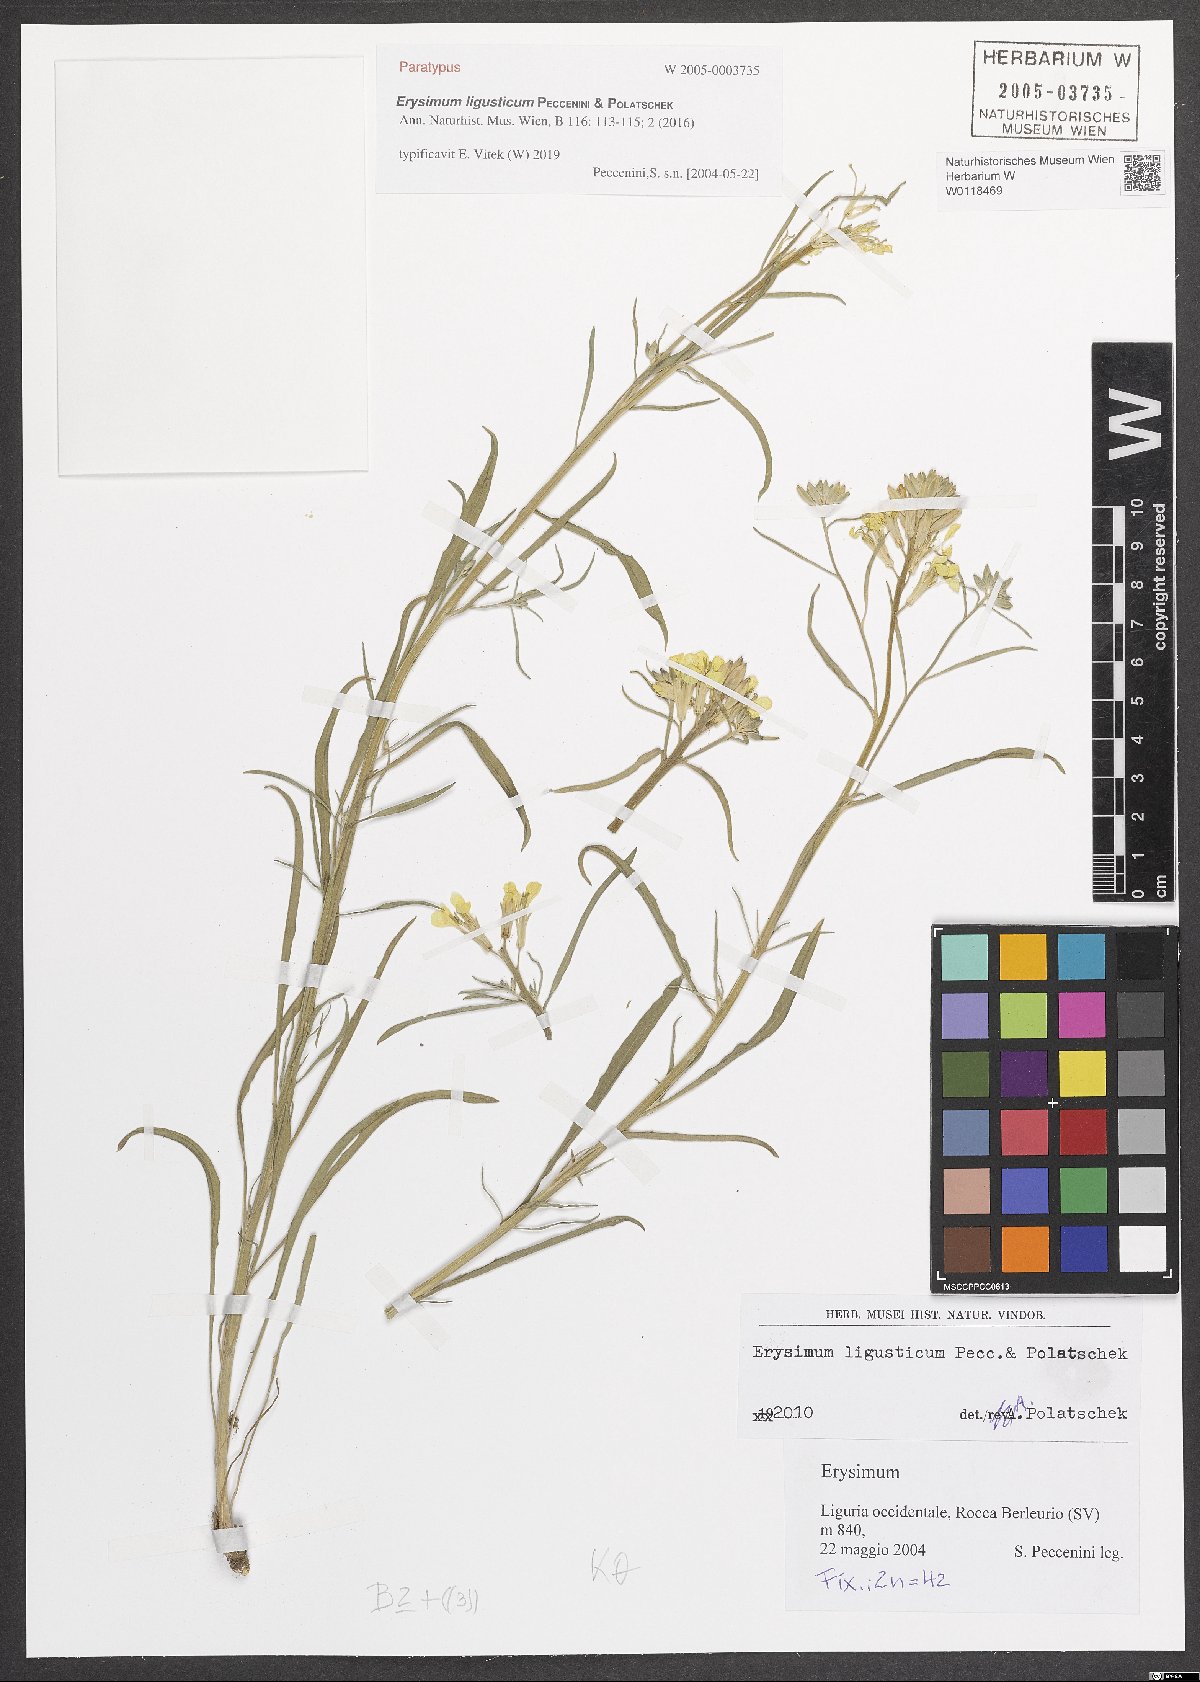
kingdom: Plantae
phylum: Tracheophyta
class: Magnoliopsida
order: Brassicales
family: Brassicaceae
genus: Erysimum
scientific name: Erysimum ligusticum
